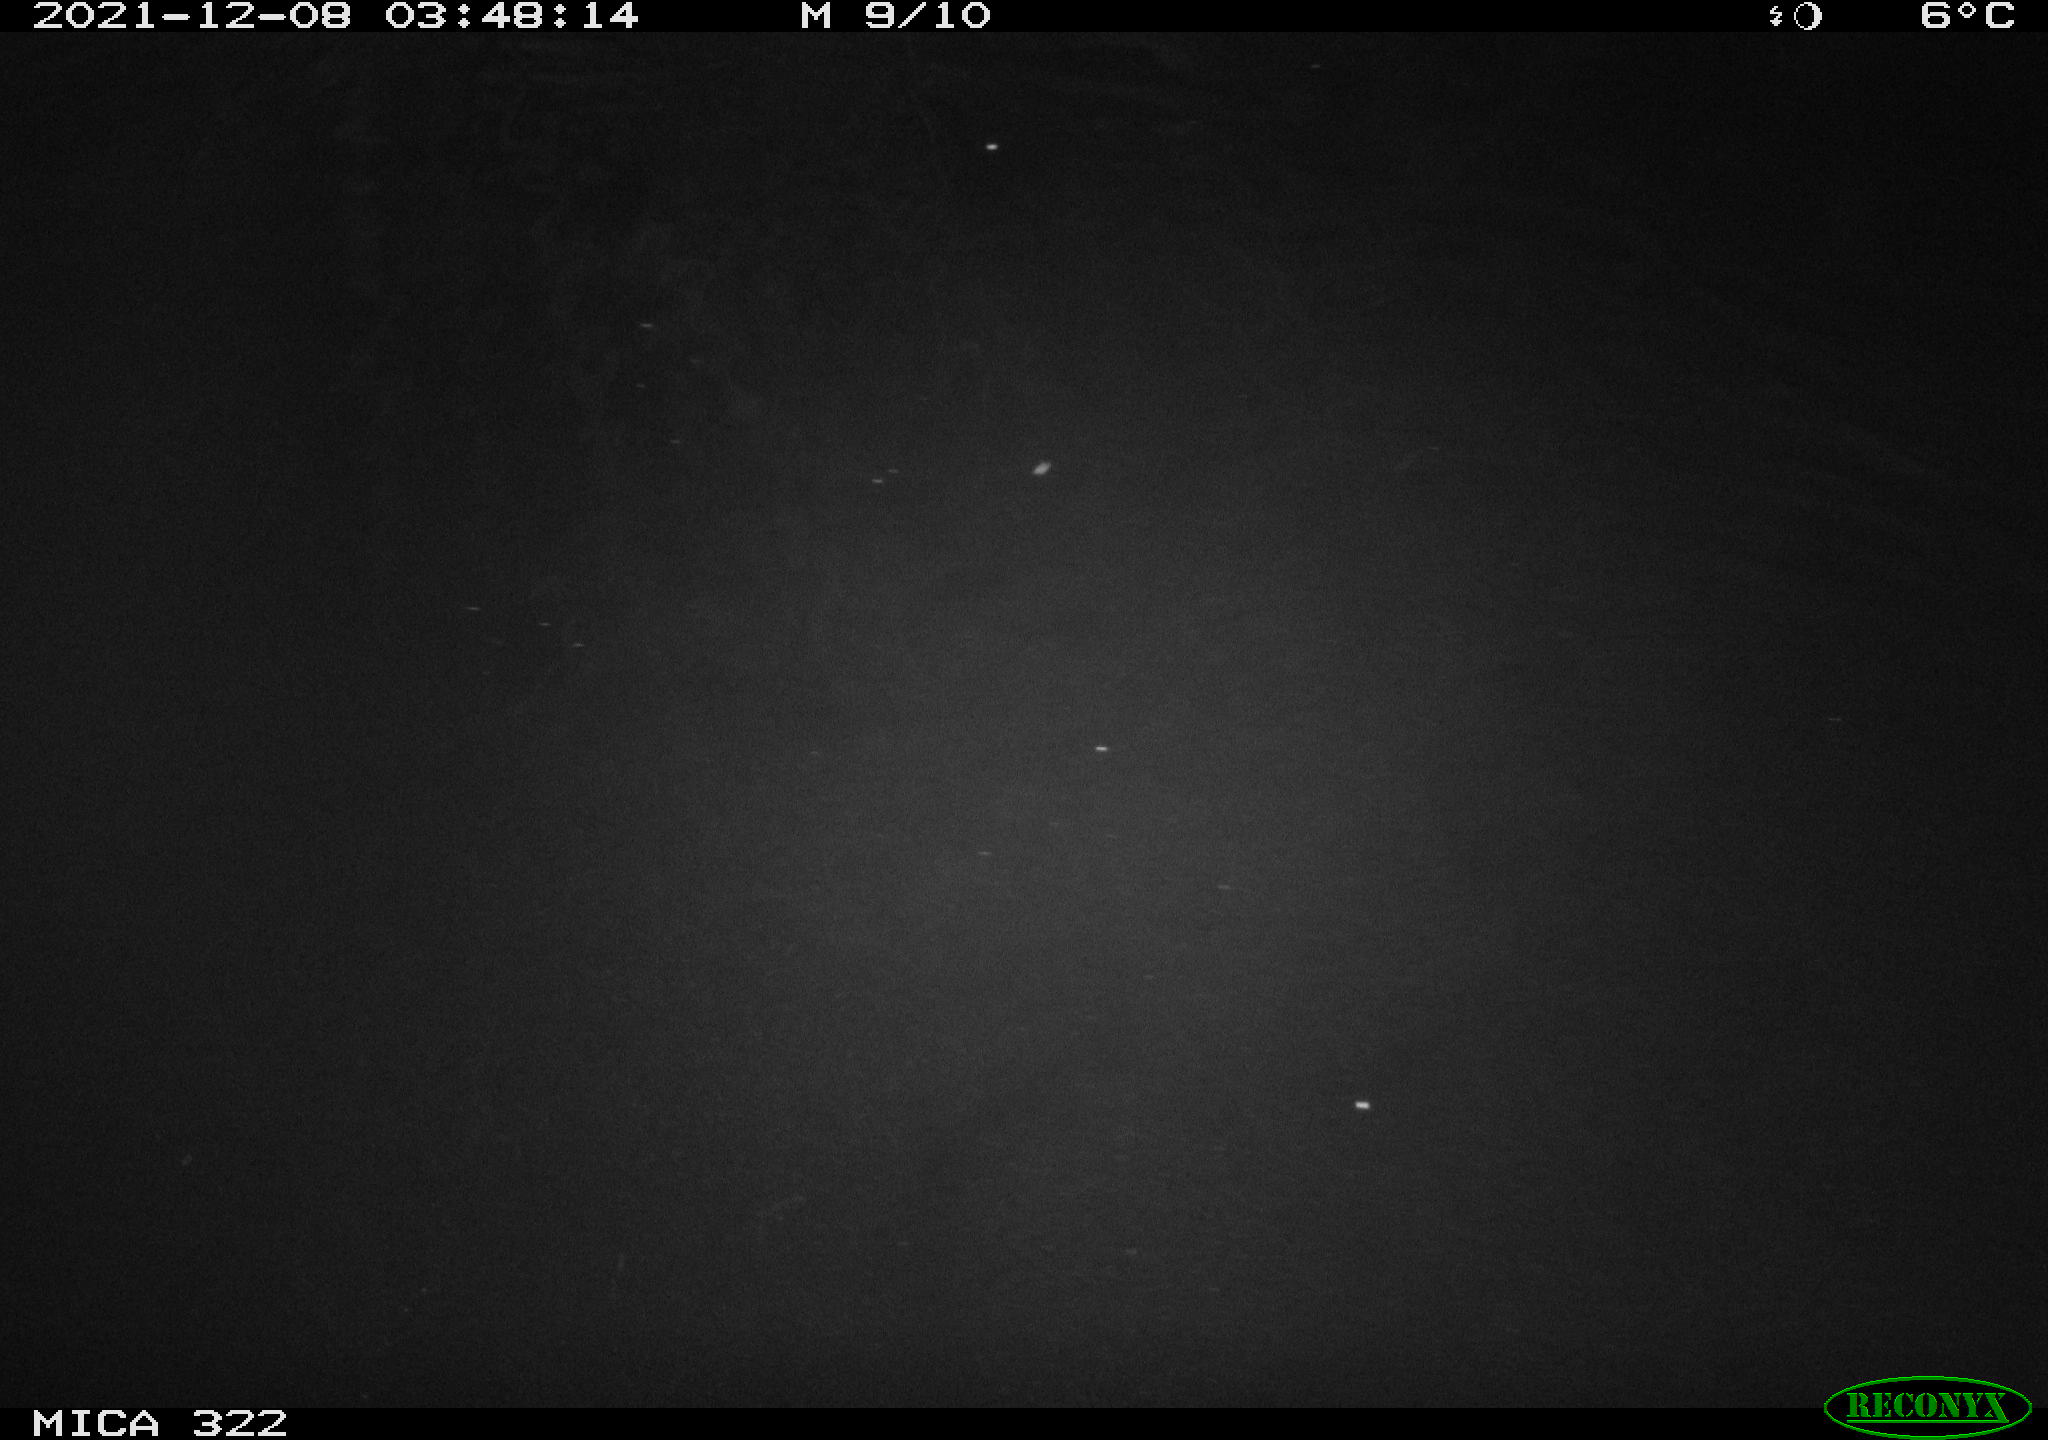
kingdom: Animalia
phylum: Chordata
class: Mammalia
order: Rodentia
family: Muridae
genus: Rattus
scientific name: Rattus norvegicus
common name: Brown rat
